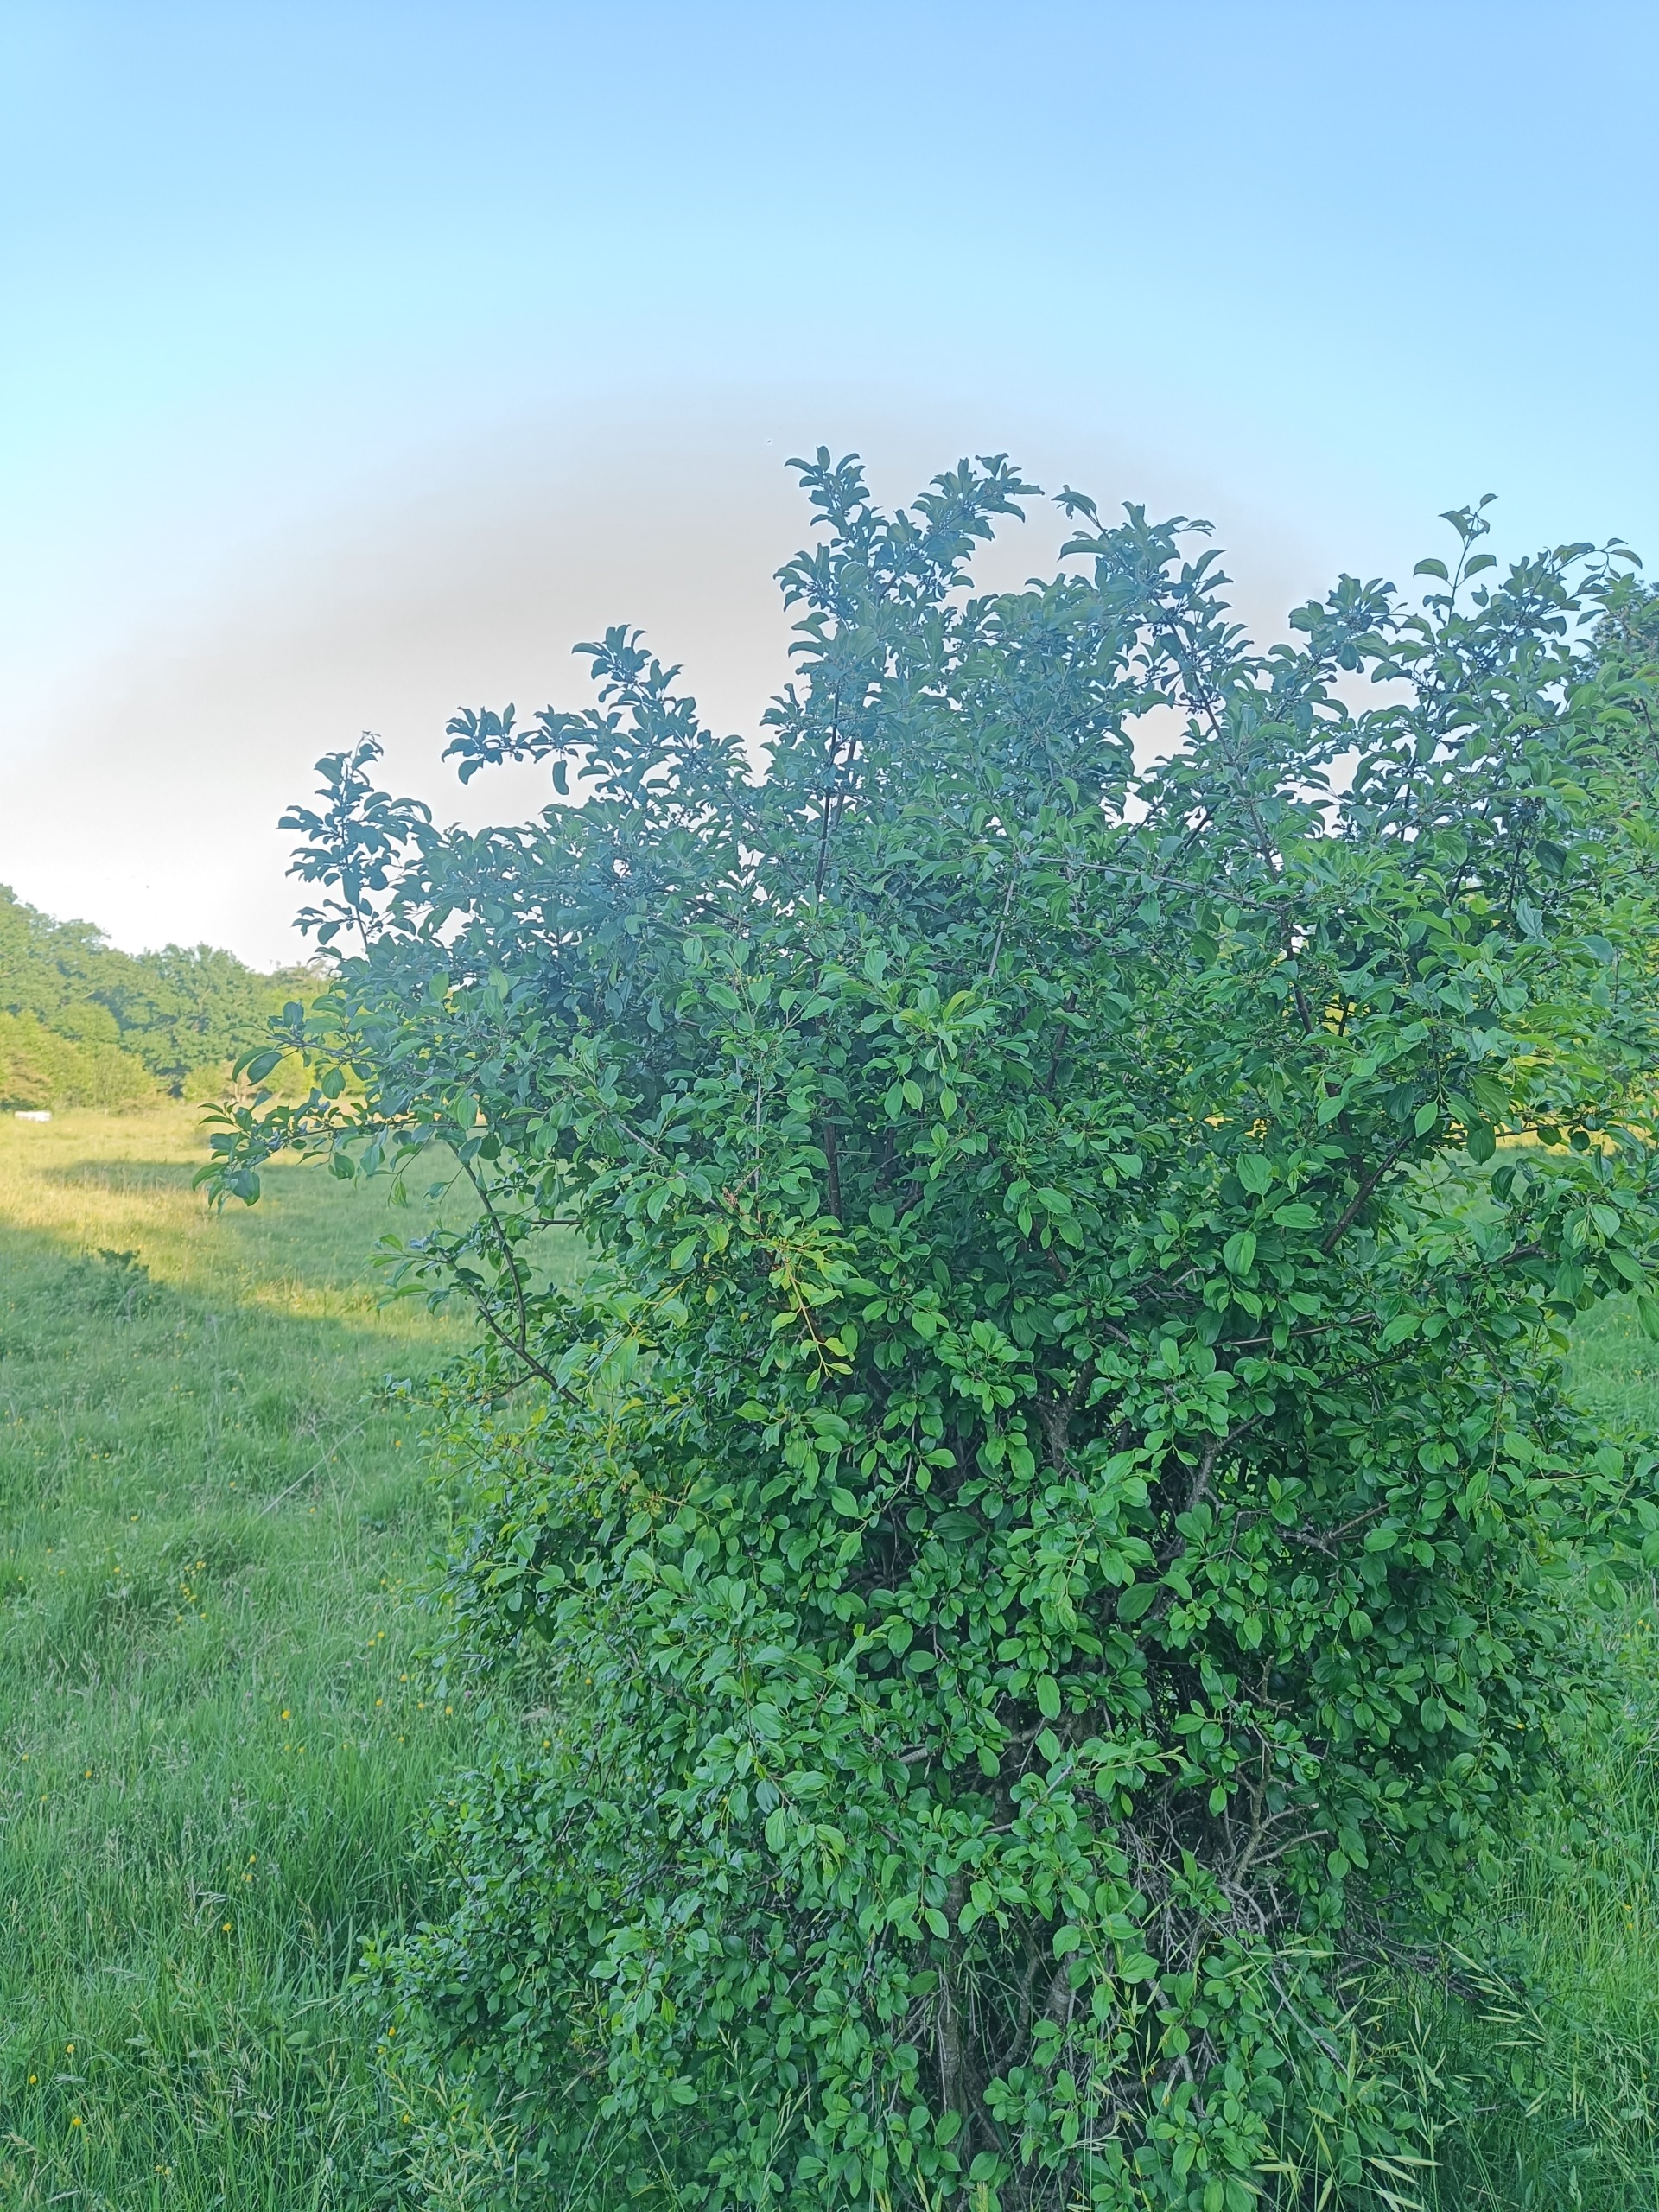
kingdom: Plantae
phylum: Tracheophyta
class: Magnoliopsida
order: Rosales
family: Rhamnaceae
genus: Rhamnus
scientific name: Rhamnus cathartica
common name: Vrietorn
